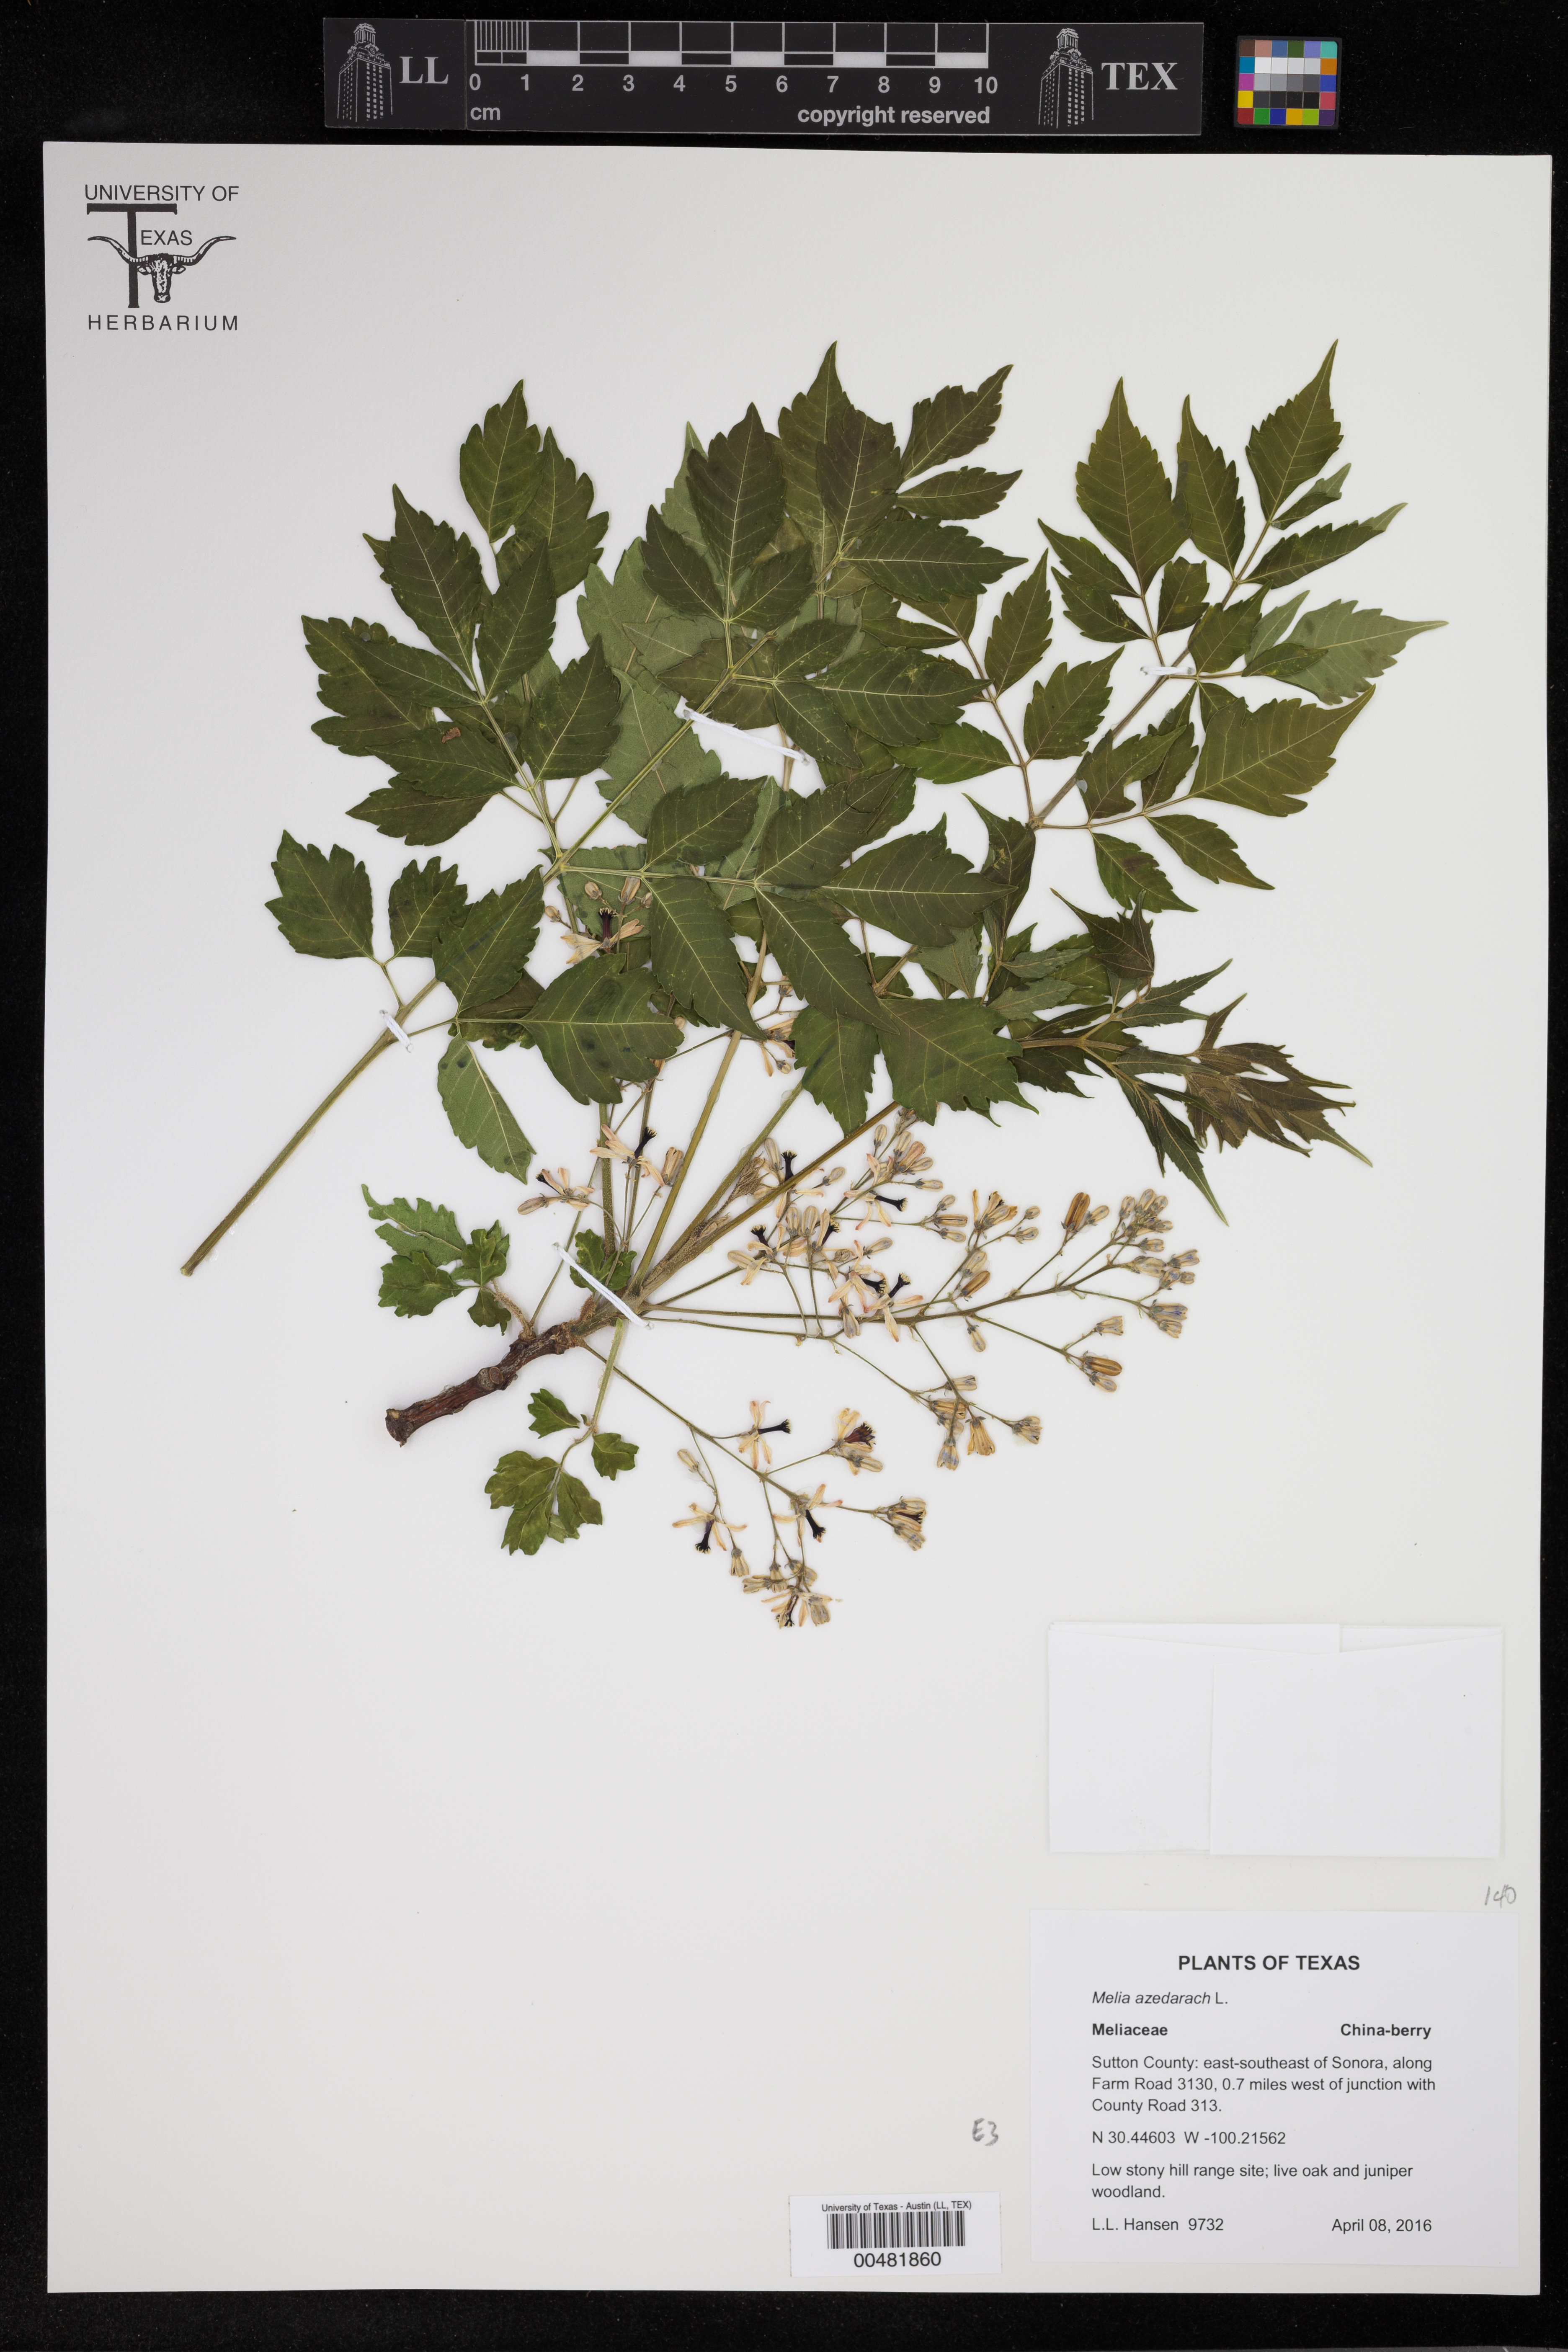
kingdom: Plantae
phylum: Tracheophyta
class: Magnoliopsida
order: Sapindales
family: Meliaceae
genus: Melia
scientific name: Melia azedarach
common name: Chinaberrytree
